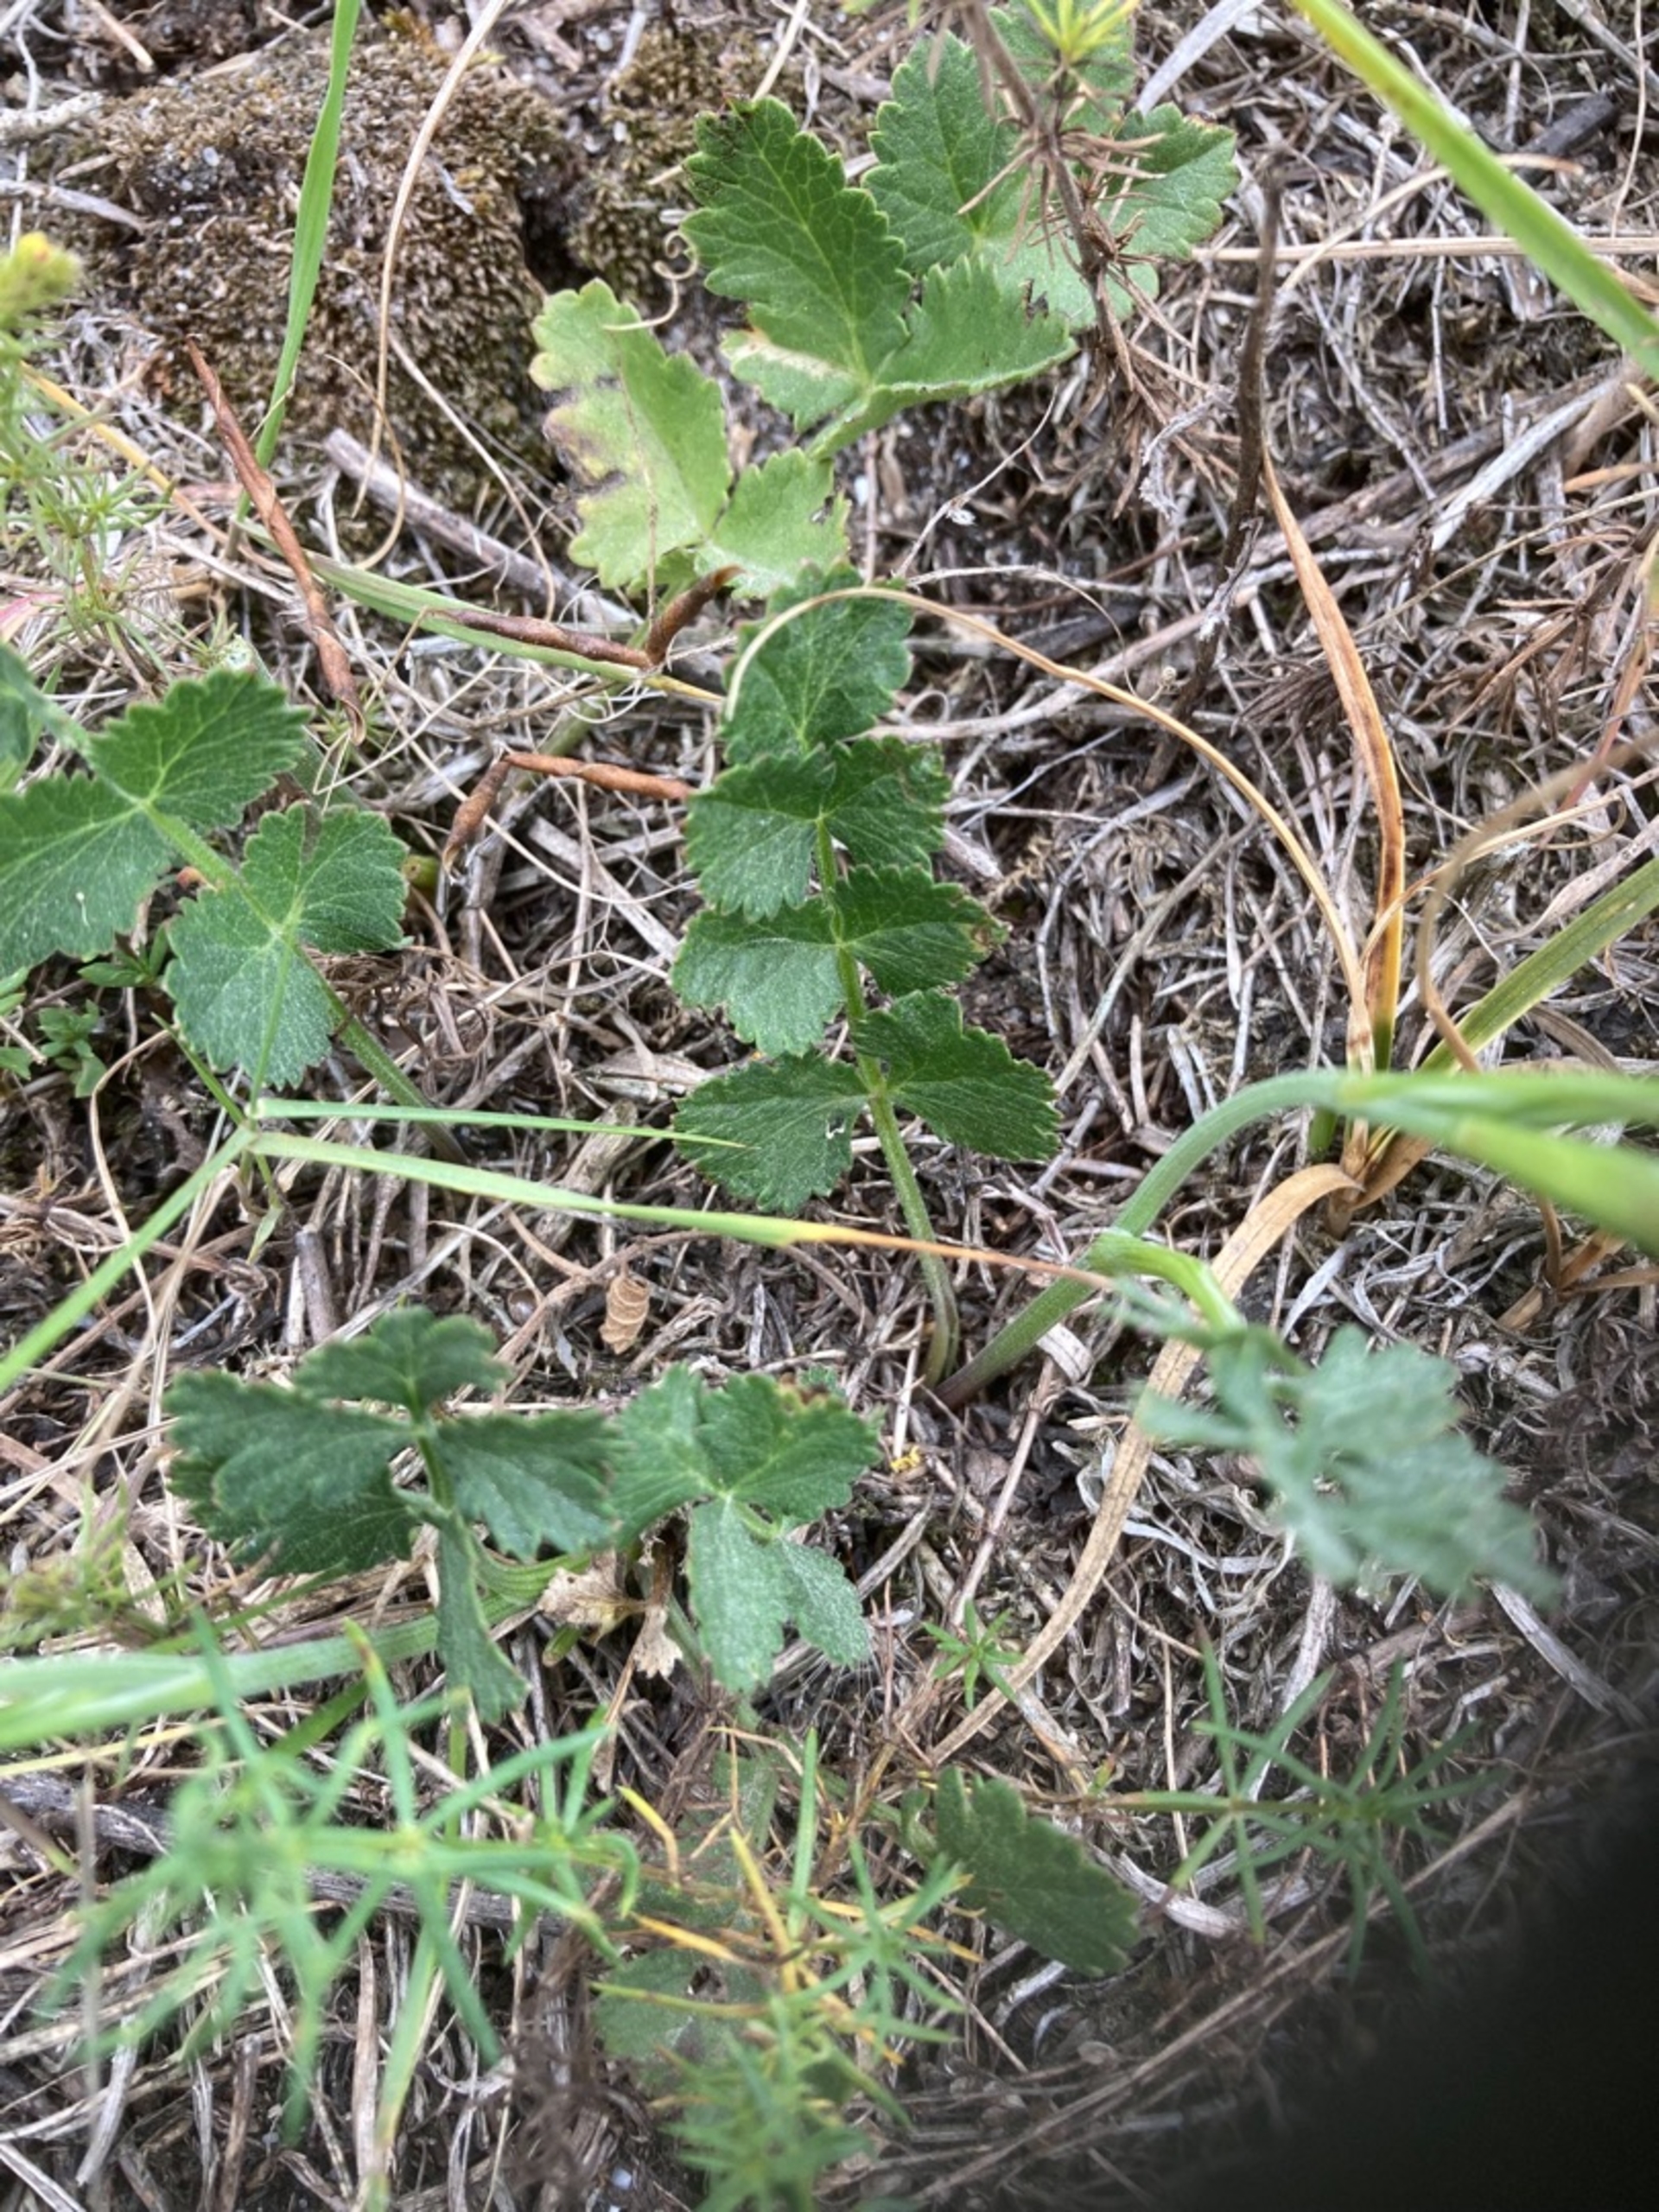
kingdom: Plantae
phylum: Tracheophyta
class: Magnoliopsida
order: Apiales
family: Apiaceae
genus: Pimpinella
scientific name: Pimpinella saxifraga
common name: Almindelig pimpinelle
